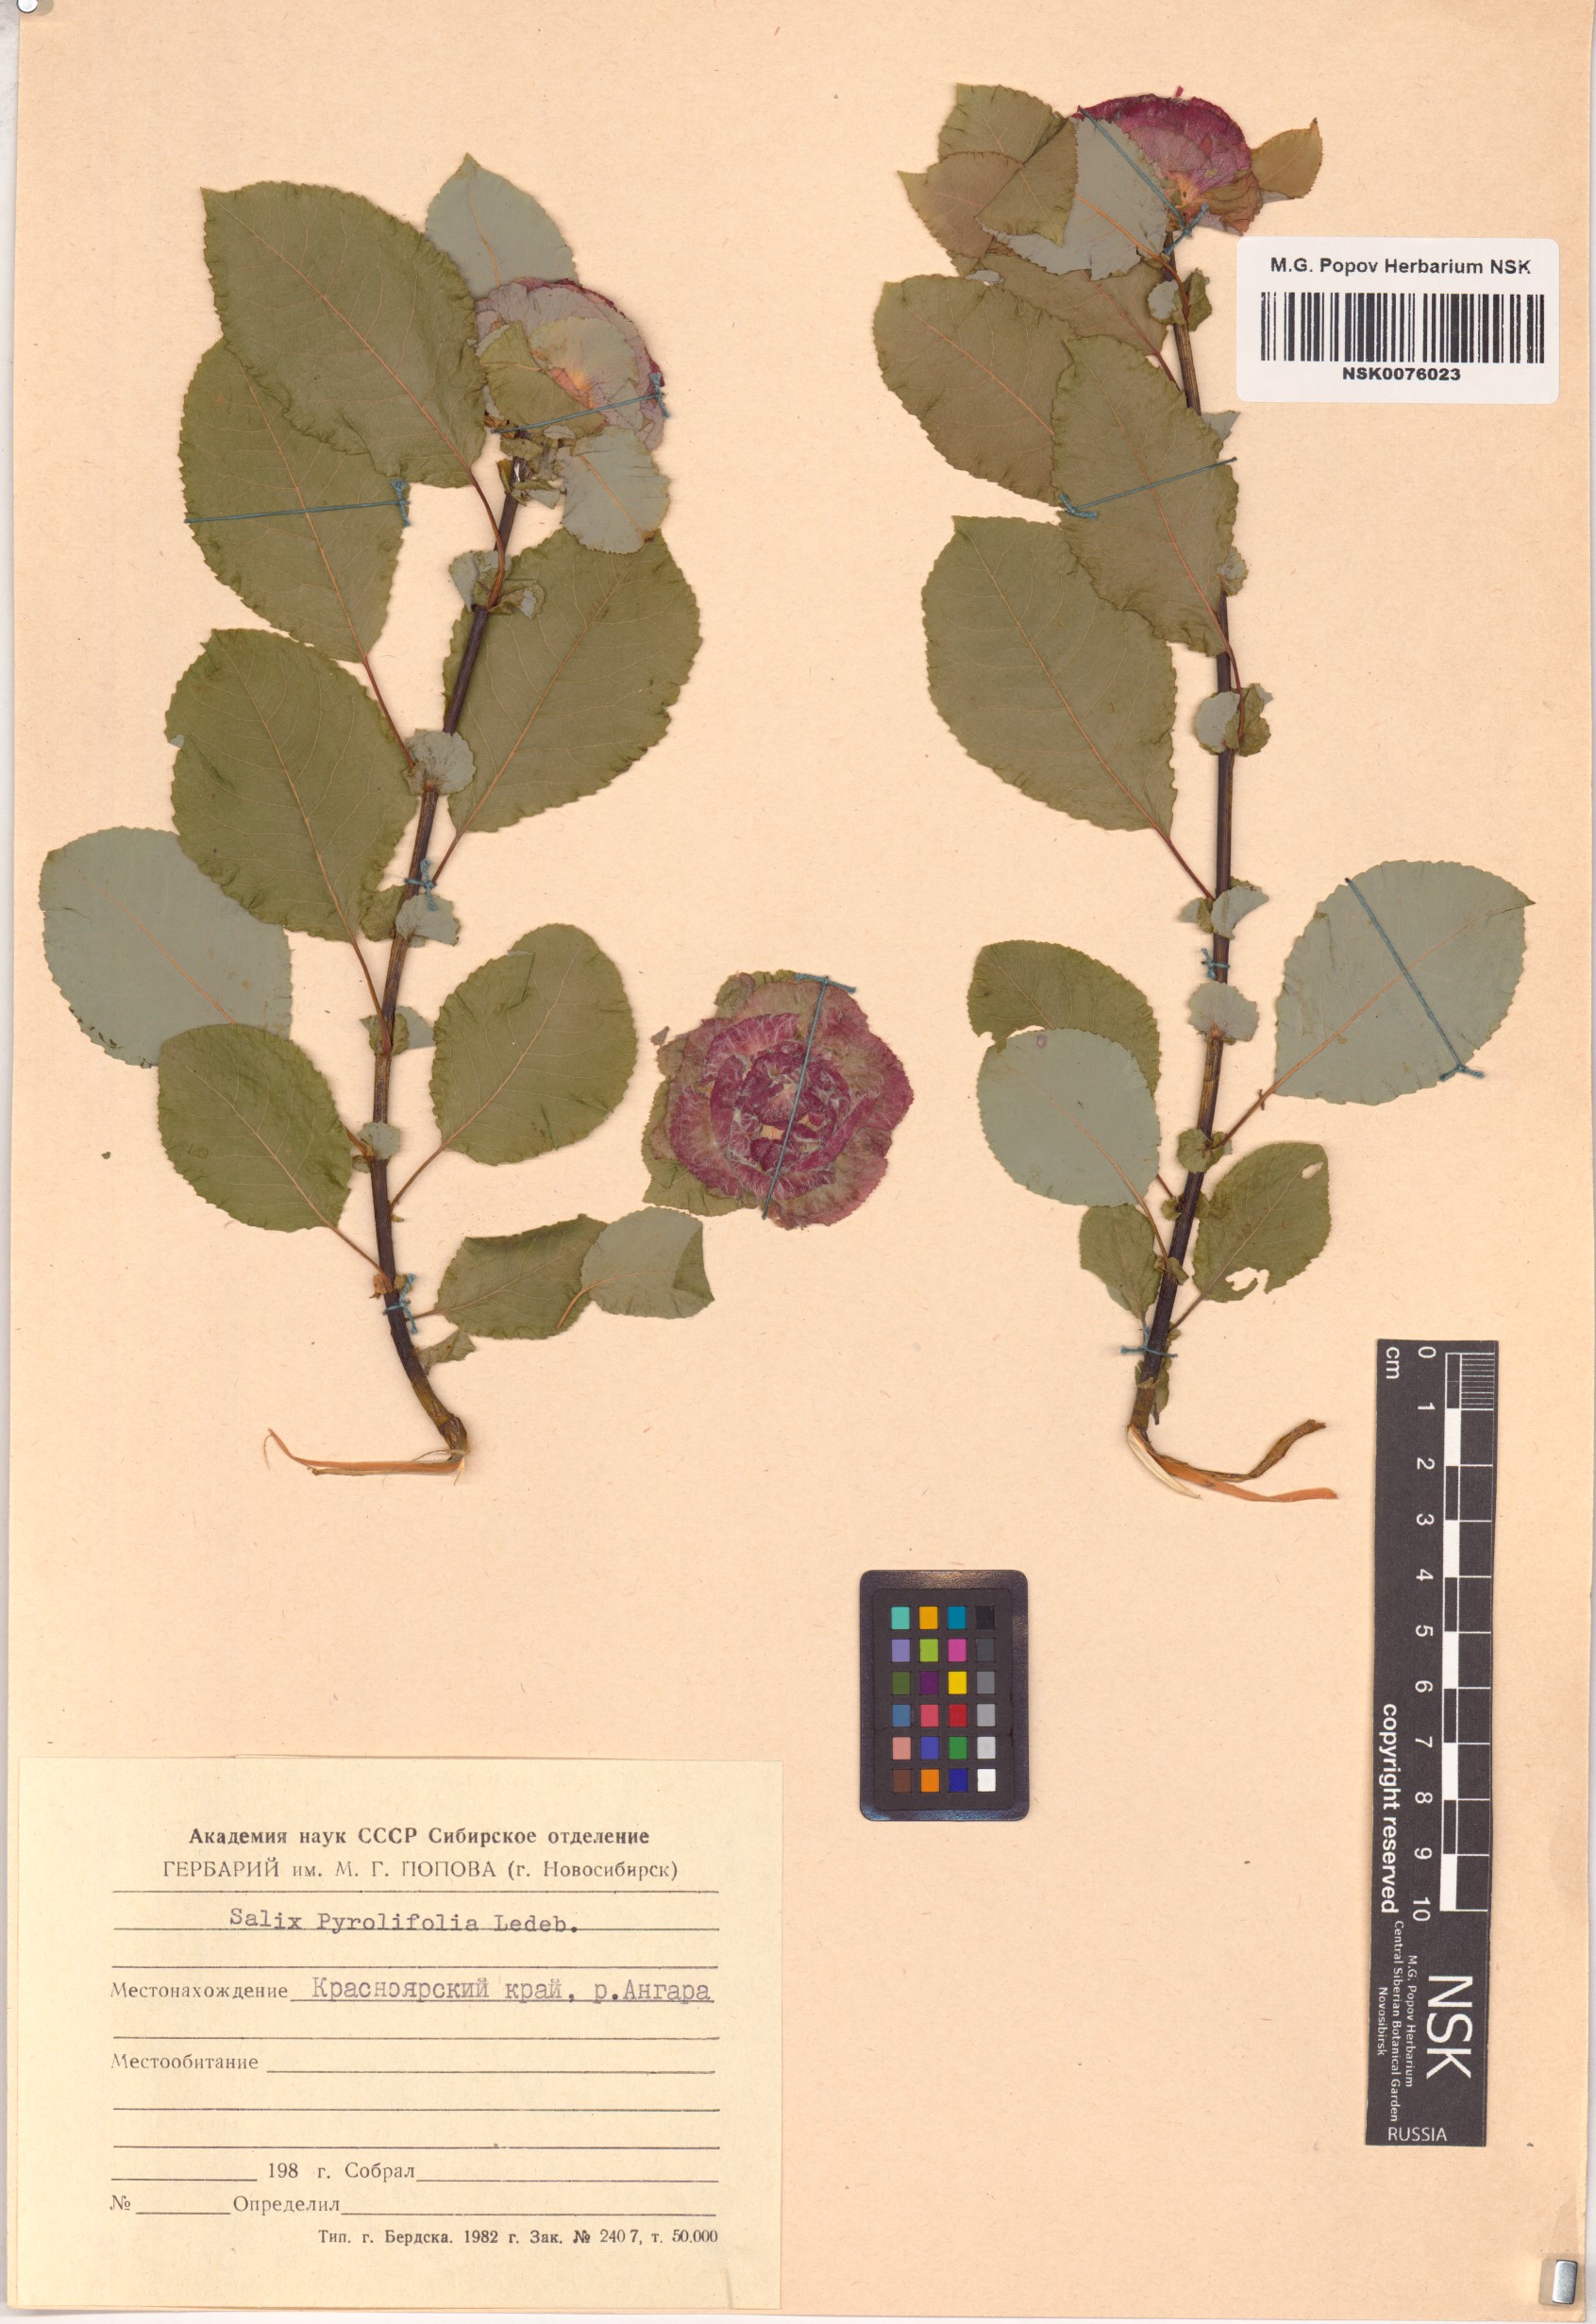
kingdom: Plantae
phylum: Tracheophyta
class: Magnoliopsida
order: Malpighiales
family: Salicaceae
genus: Salix
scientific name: Salix pyrolifolia
